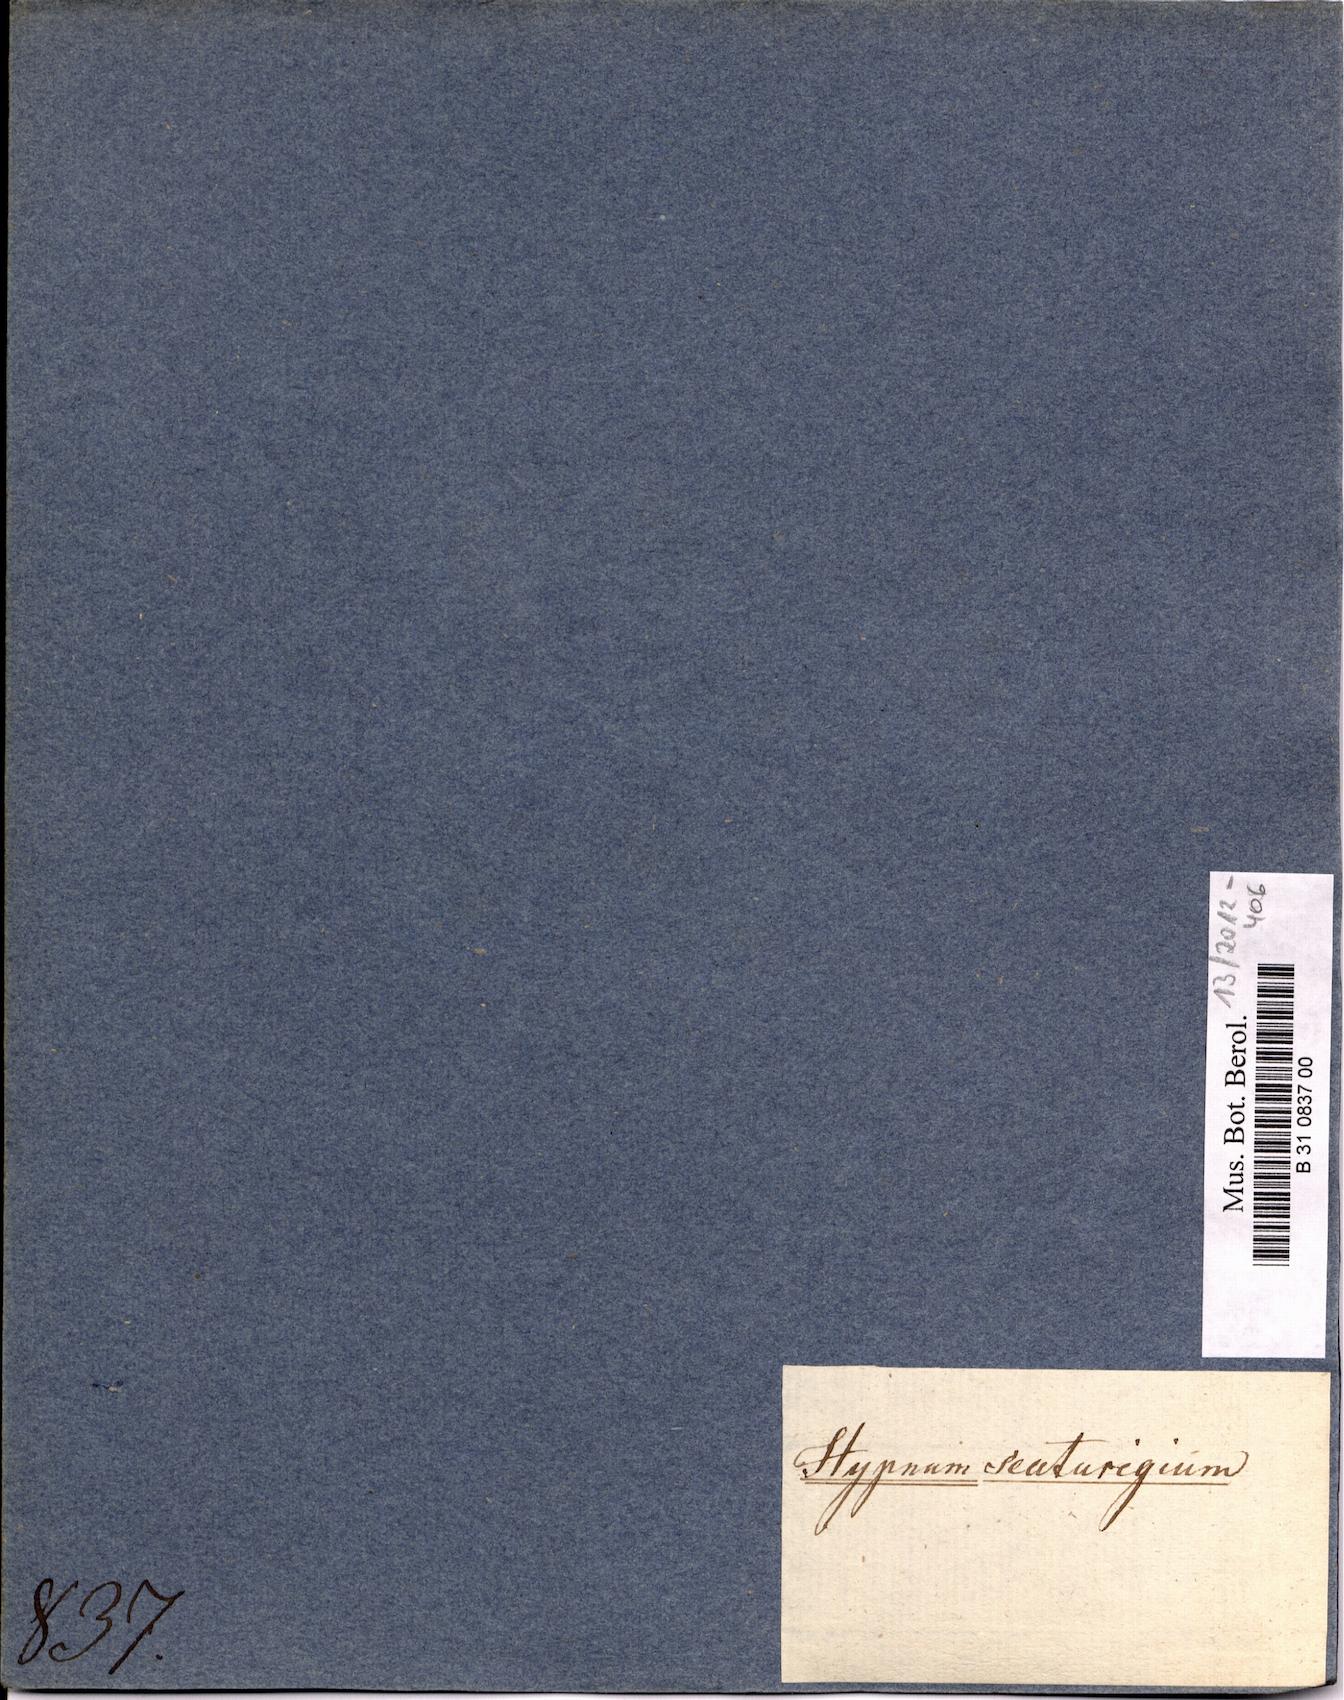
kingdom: Plantae
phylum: Bryophyta
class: Bryopsida
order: Hypnales
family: Hypnaceae
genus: Vesicularia
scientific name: Vesicularia scaturigina
